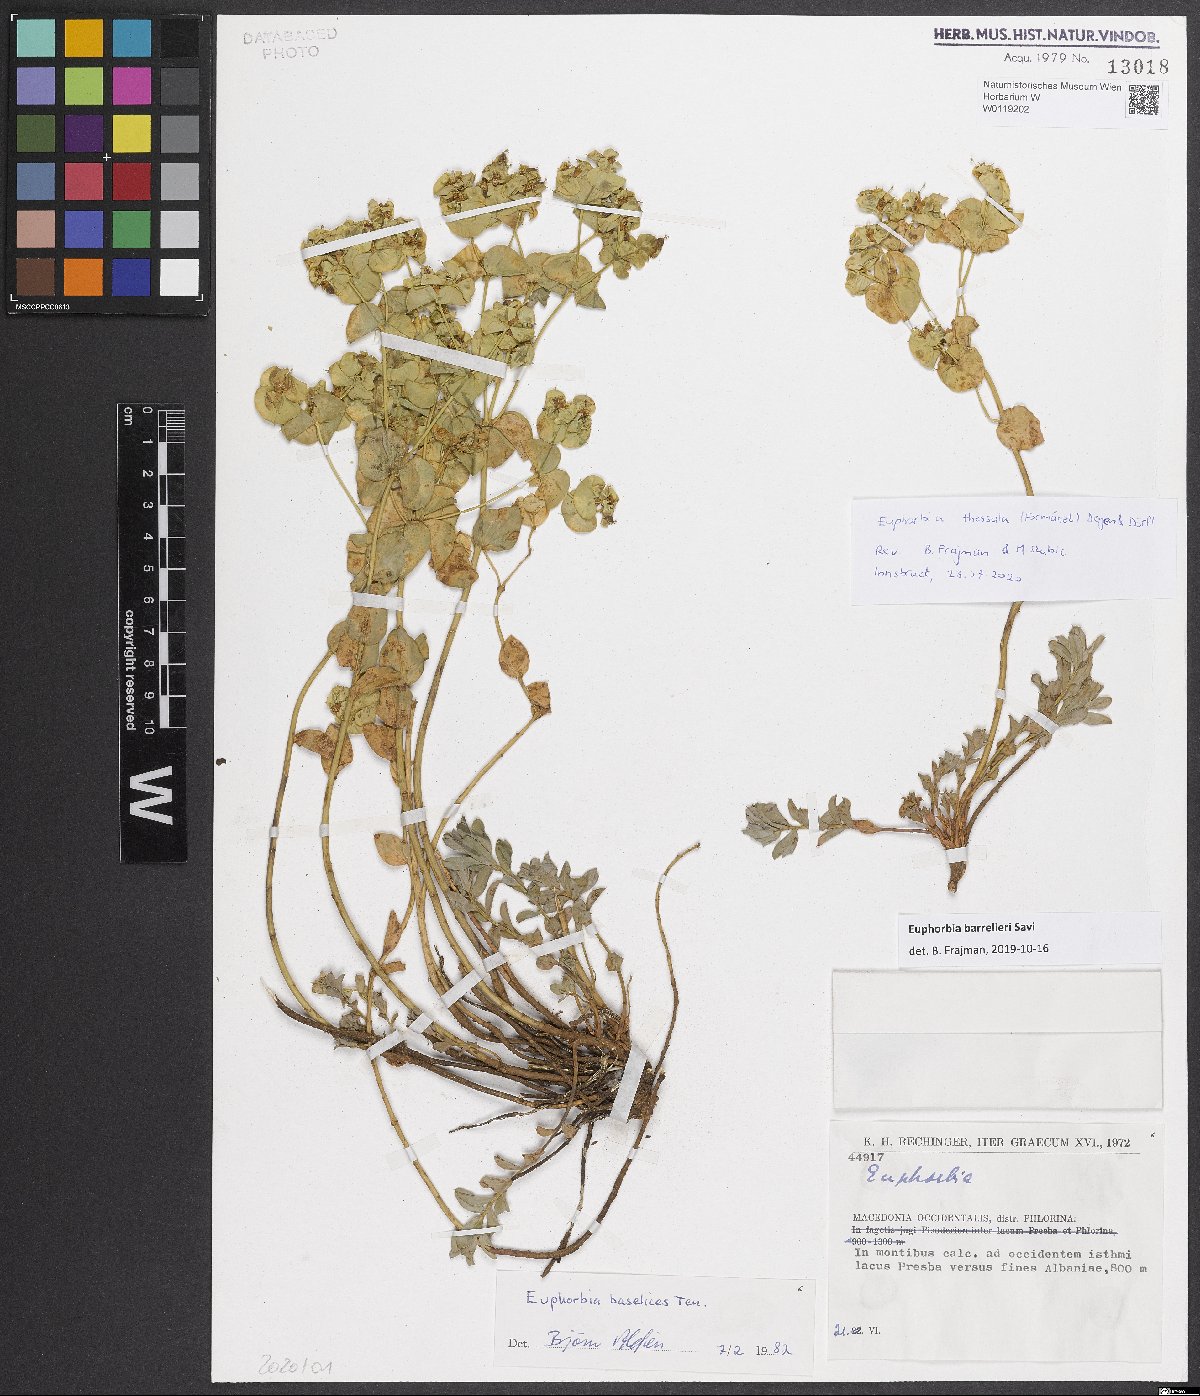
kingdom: Plantae
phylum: Tracheophyta
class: Magnoliopsida
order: Malpighiales
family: Euphorbiaceae
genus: Euphorbia
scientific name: Euphorbia barrelieri
